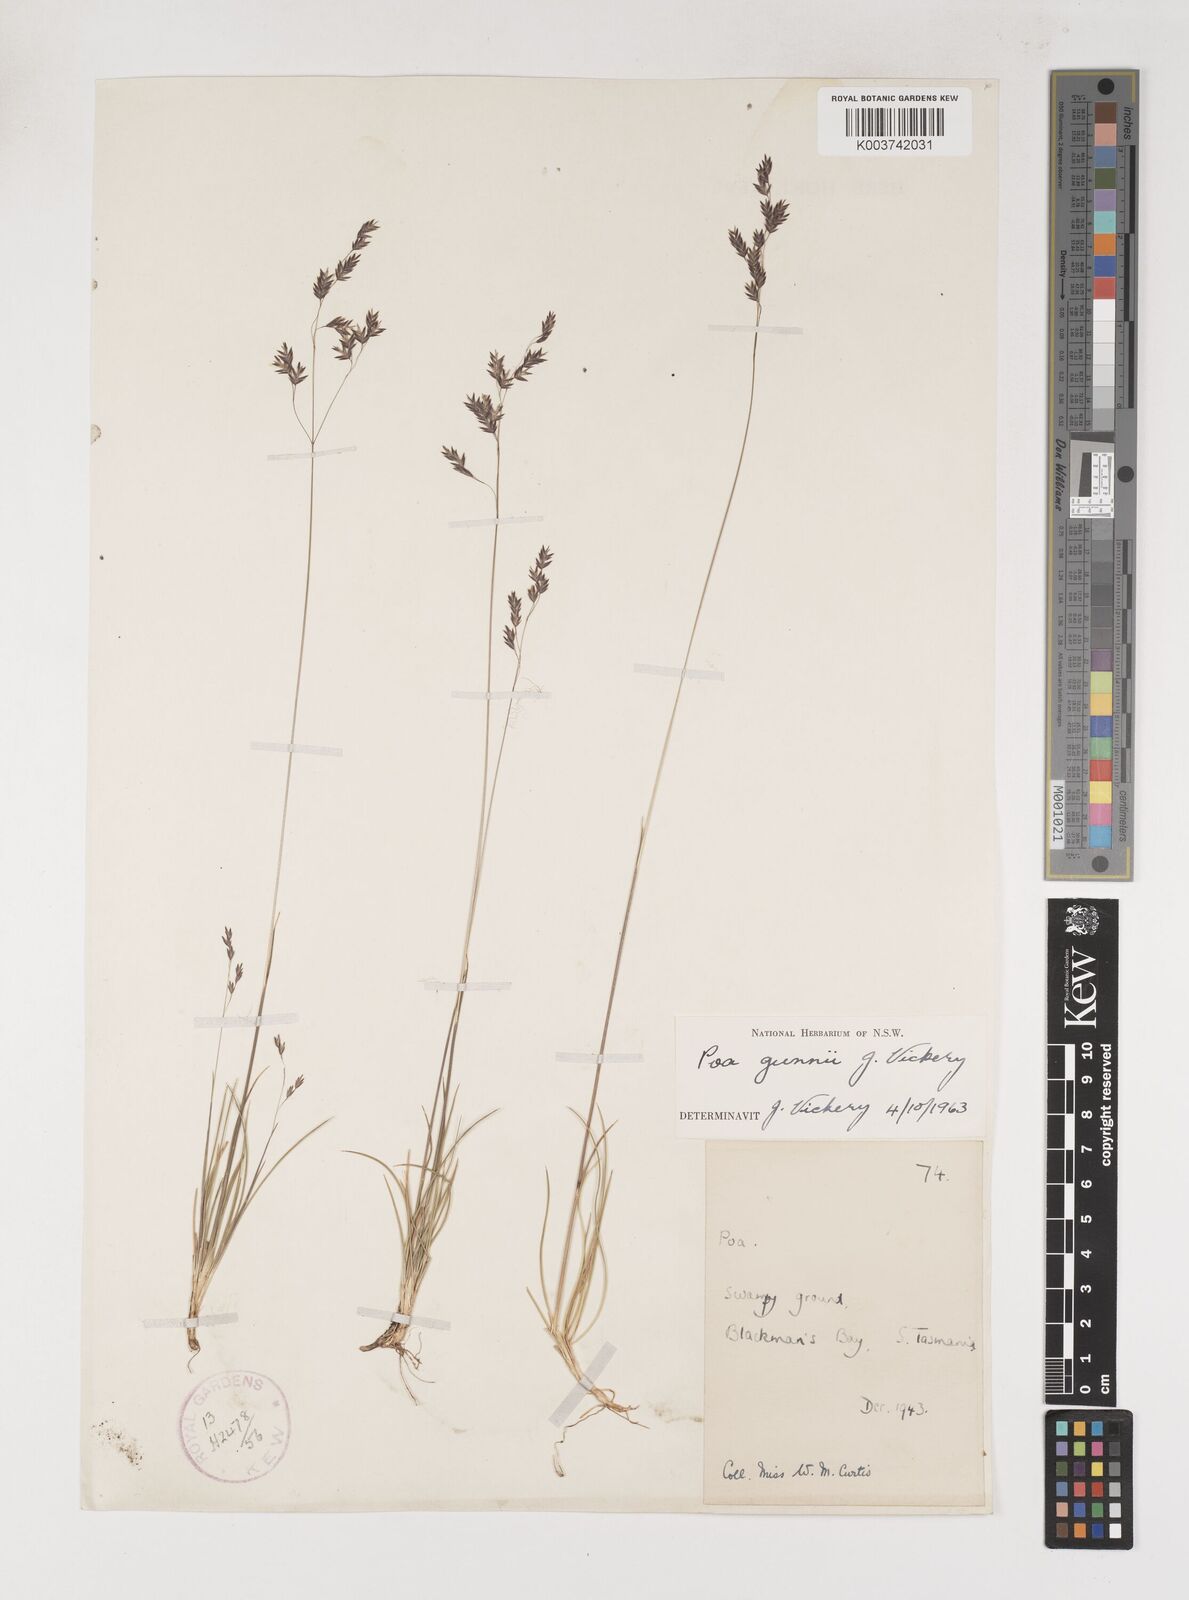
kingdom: Plantae
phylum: Tracheophyta
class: Liliopsida
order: Poales
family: Poaceae
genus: Poa
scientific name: Poa gunnii
